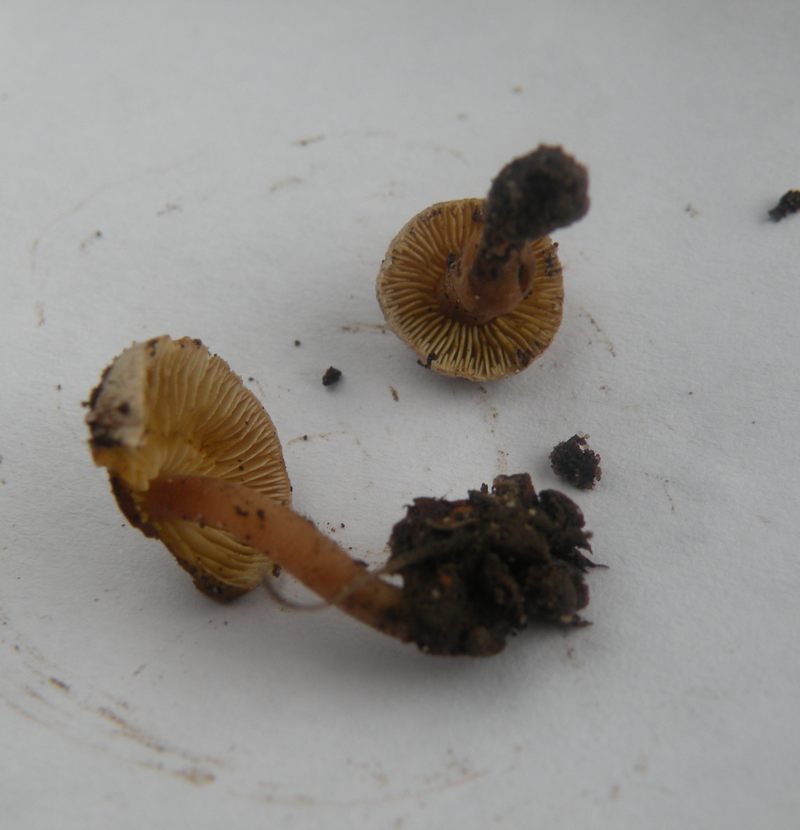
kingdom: Fungi
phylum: Basidiomycota
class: Agaricomycetes
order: Agaricales
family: Inocybaceae
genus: Inocybe
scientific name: Inocybe petiginosa
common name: liden trævlhat
